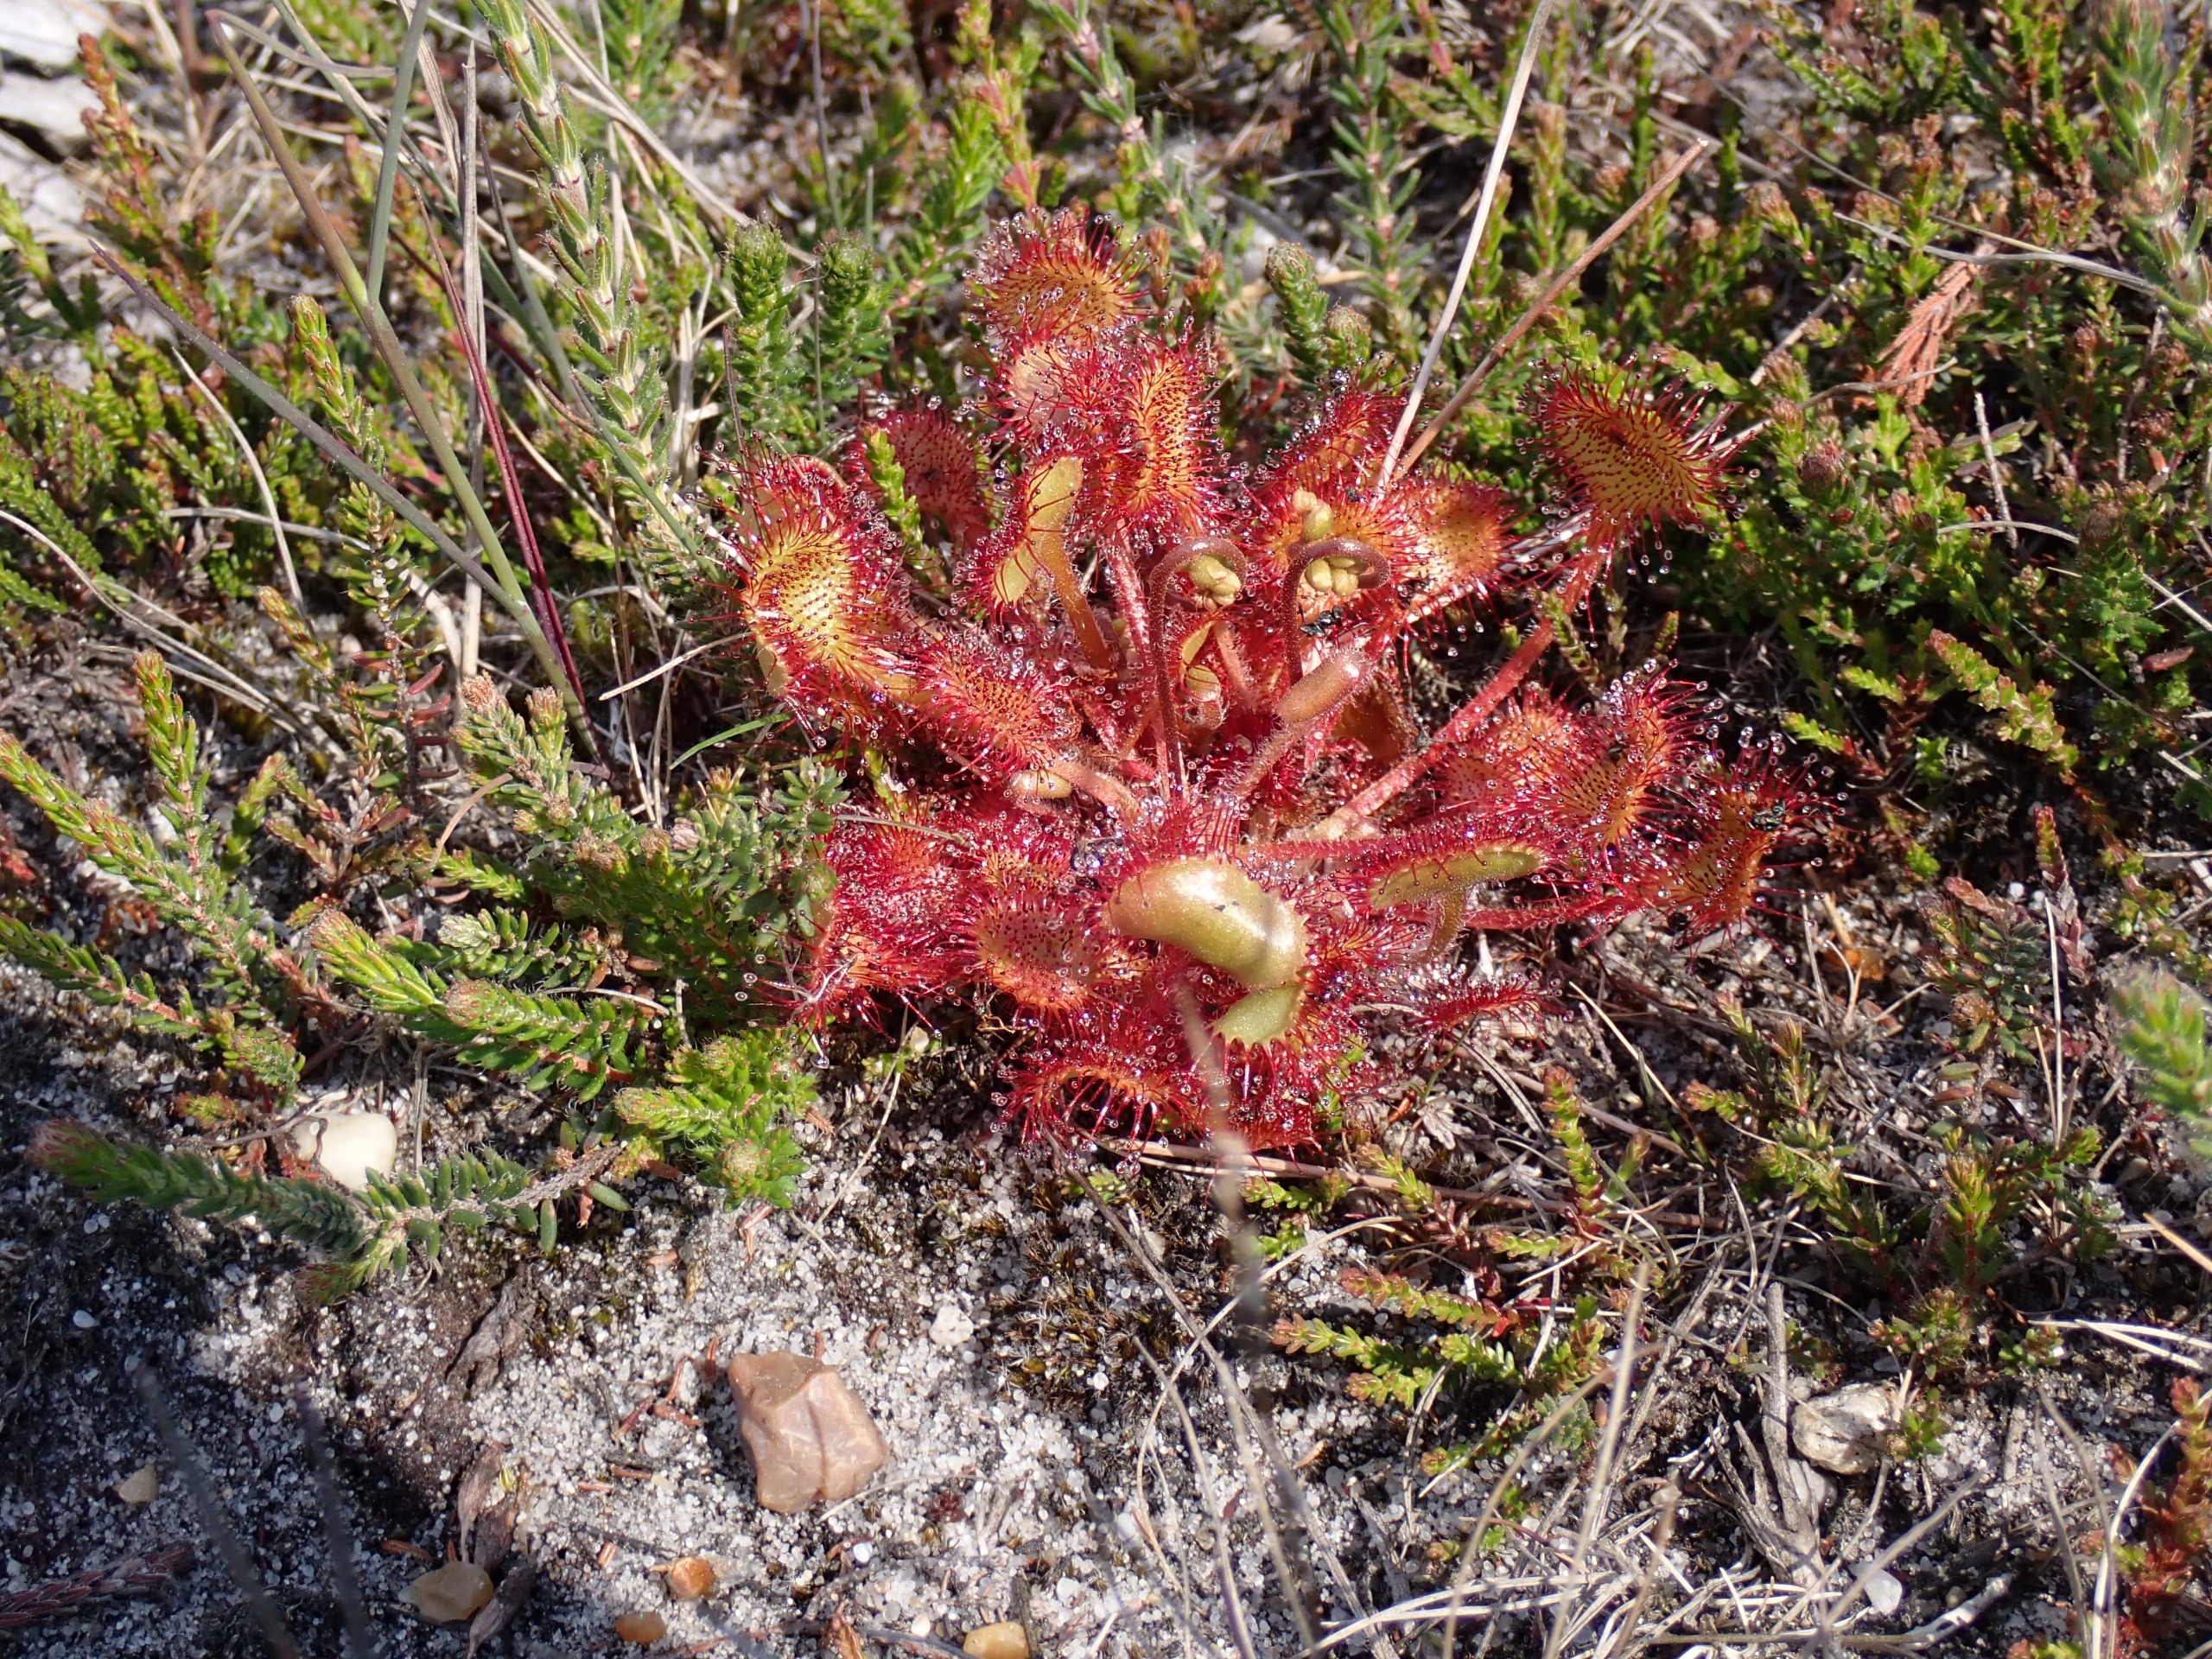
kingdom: Plantae
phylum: Tracheophyta
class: Magnoliopsida
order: Caryophyllales
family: Droseraceae
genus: Drosera
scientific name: Drosera rotundifolia
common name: Rundbladet soldug
